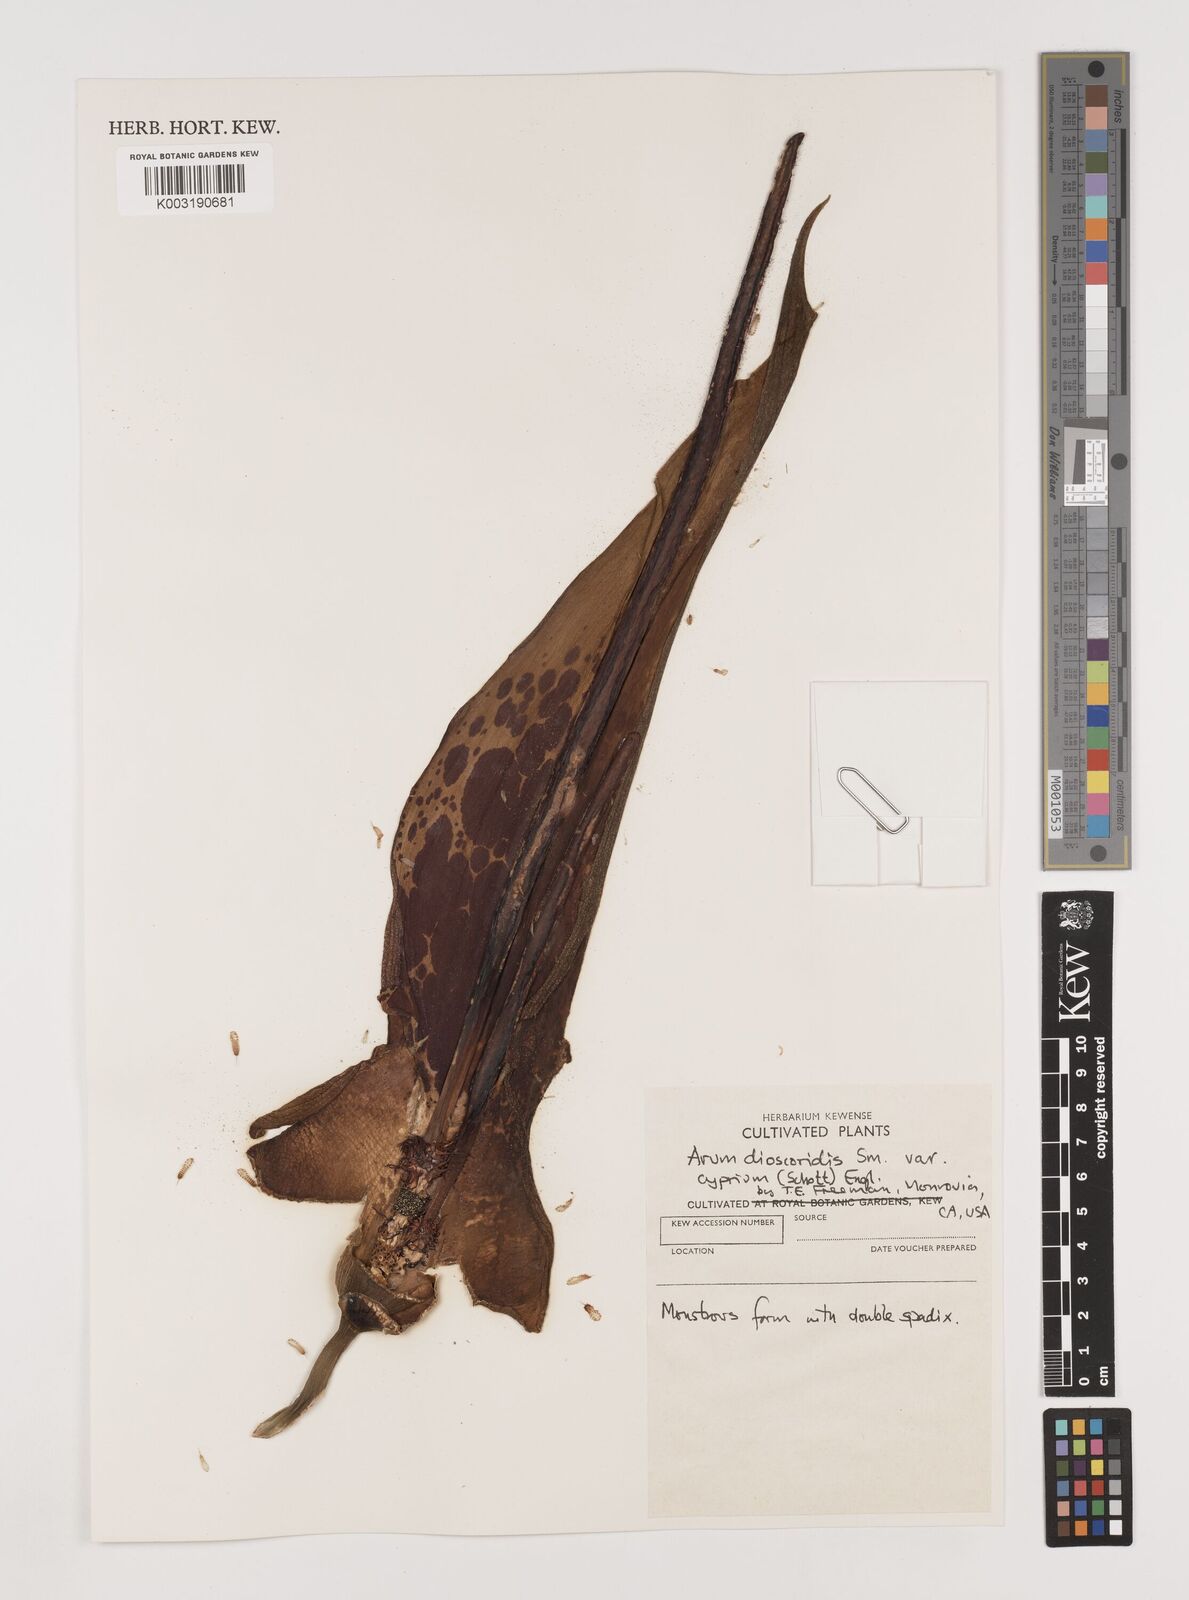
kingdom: Plantae
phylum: Tracheophyta
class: Liliopsida
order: Alismatales
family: Araceae
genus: Arum
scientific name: Arum dioscoridis
